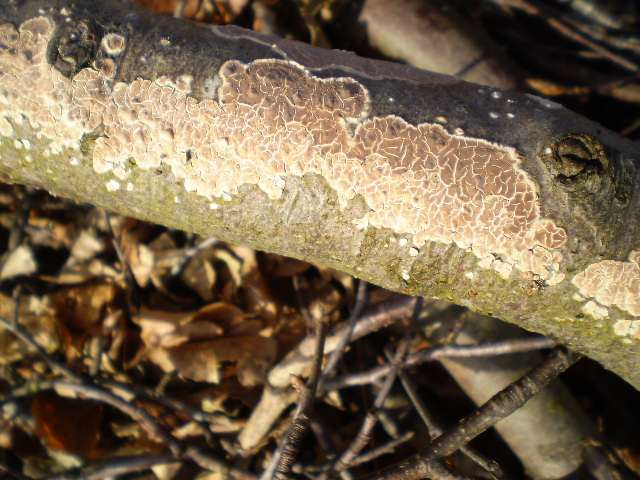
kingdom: Fungi
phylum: Basidiomycota
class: Agaricomycetes
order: Agaricales
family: Physalacriaceae
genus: Cylindrobasidium
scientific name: Cylindrobasidium evolvens
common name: sprækkehinde
